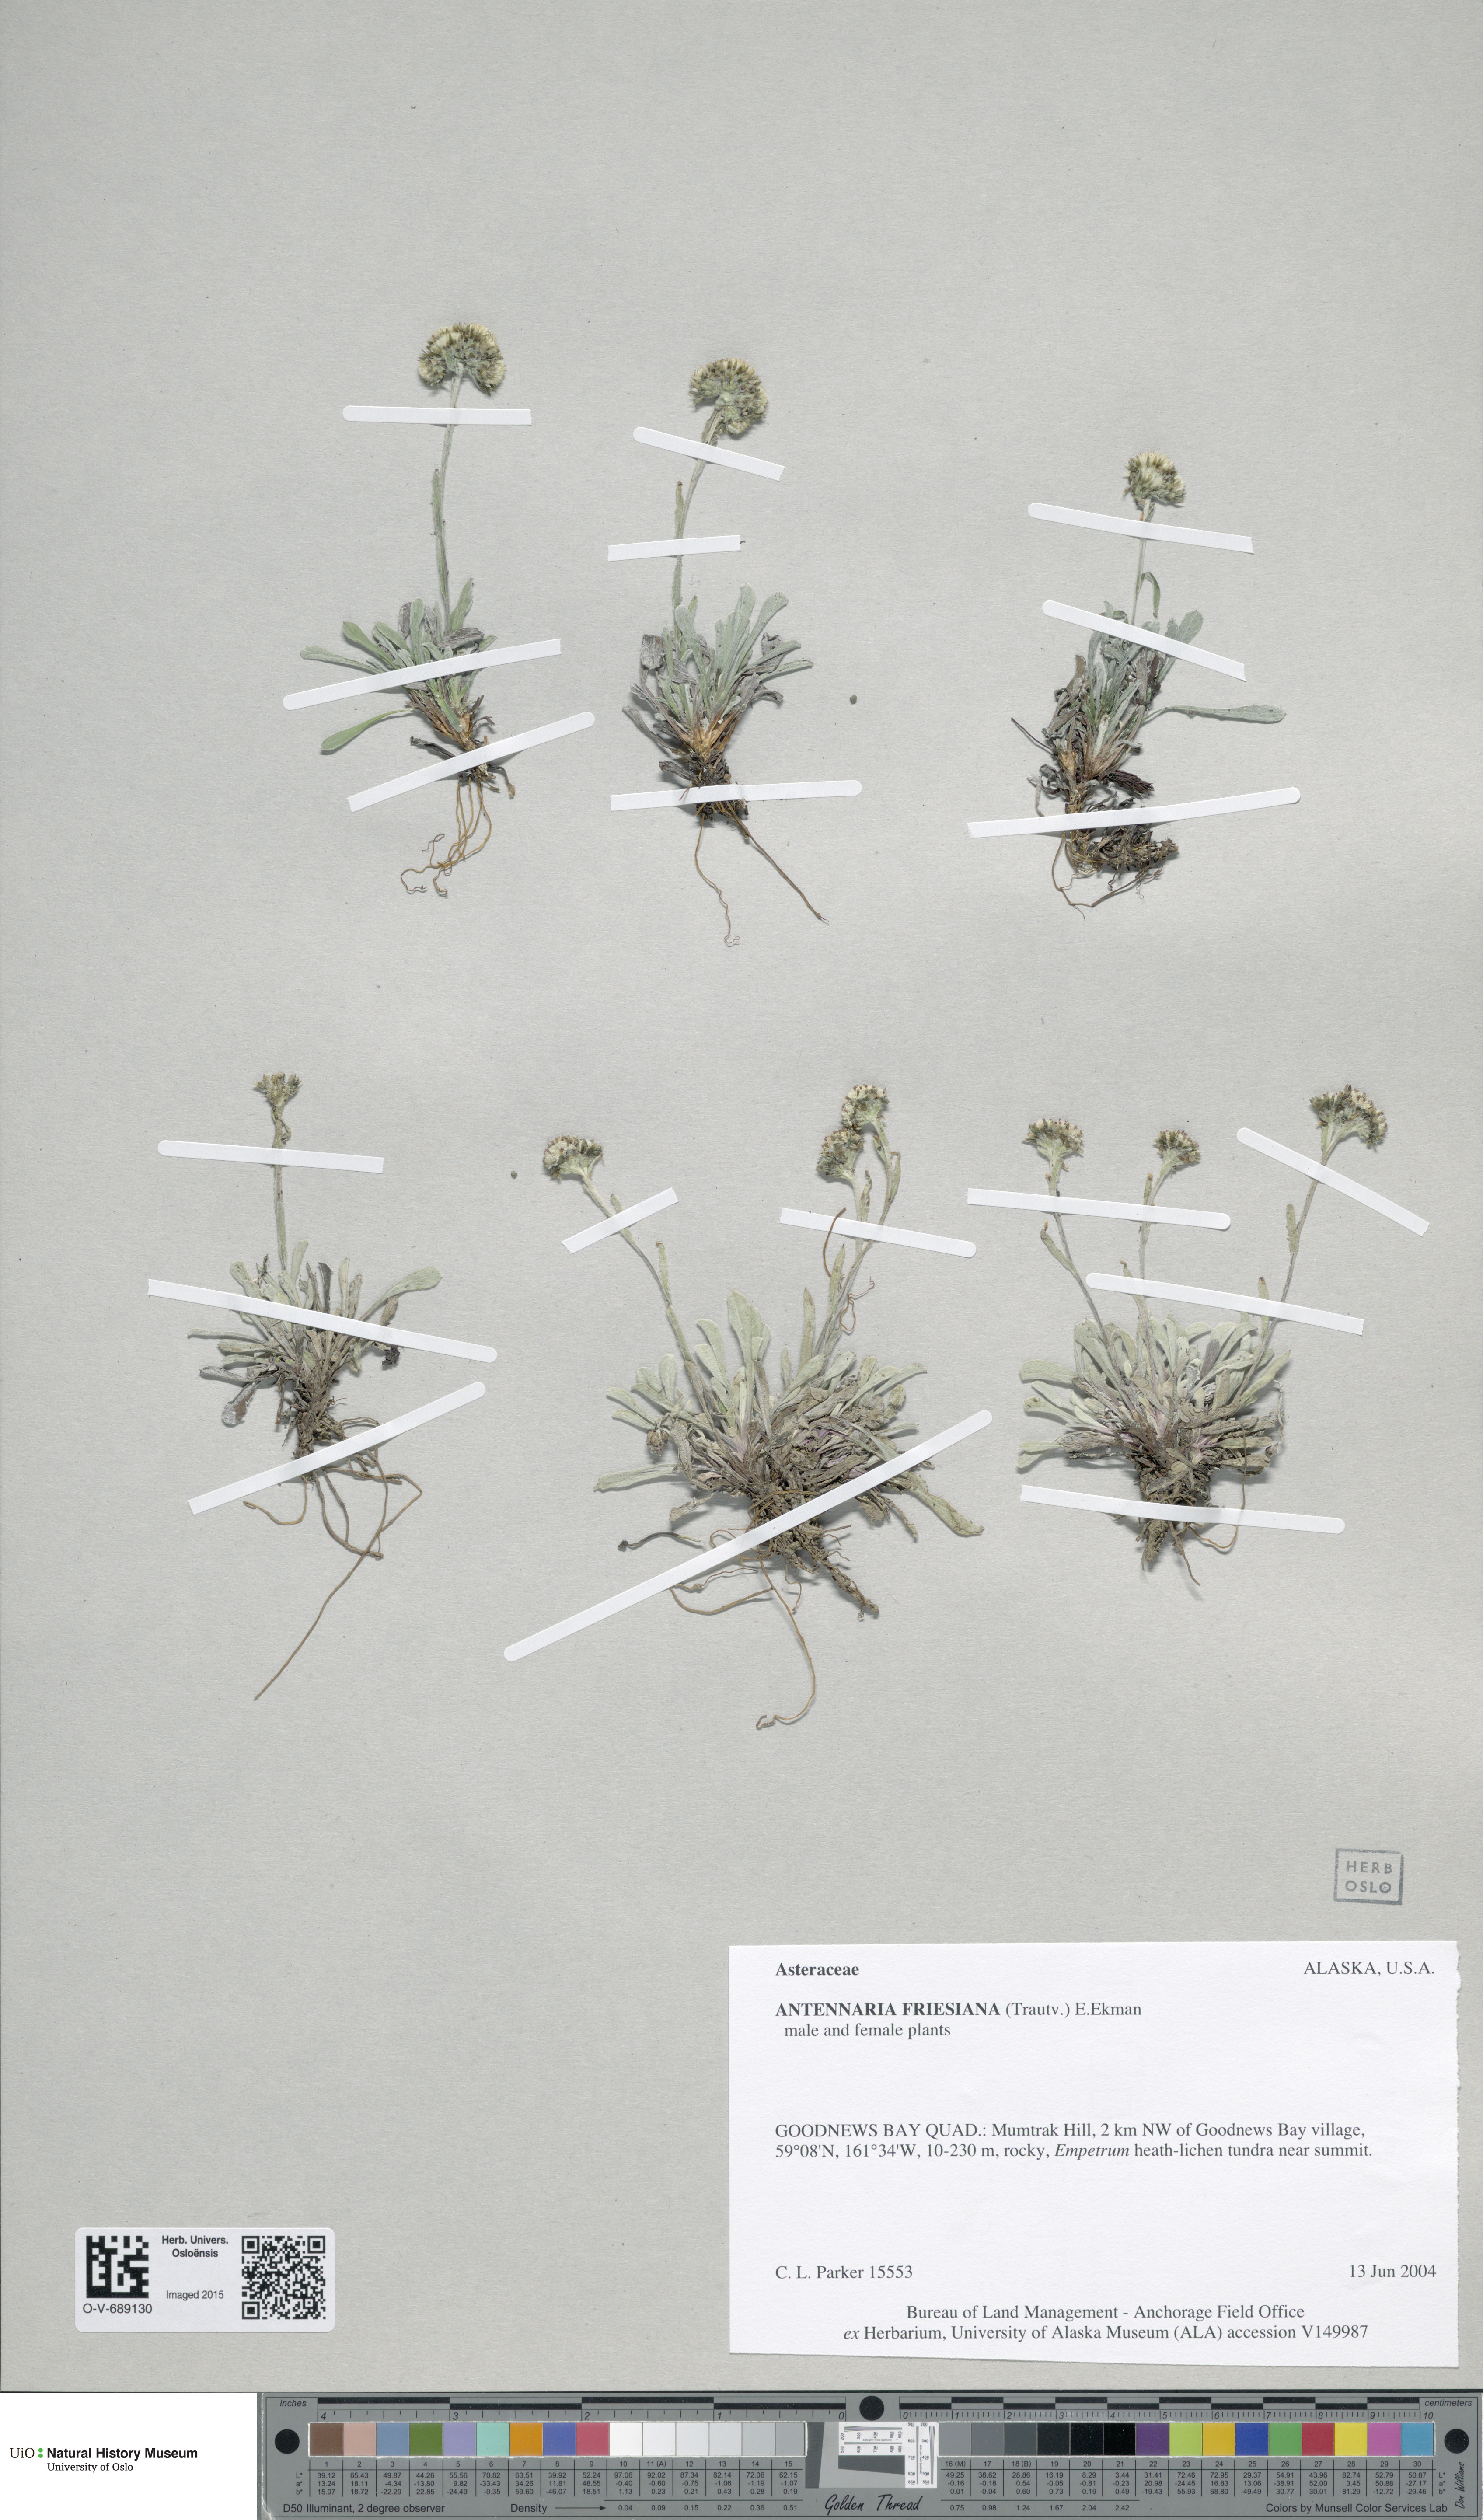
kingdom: Plantae
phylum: Tracheophyta
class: Magnoliopsida
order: Asterales
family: Asteraceae
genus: Antennaria
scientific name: Antennaria friesiana
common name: Fries' pussytoes
